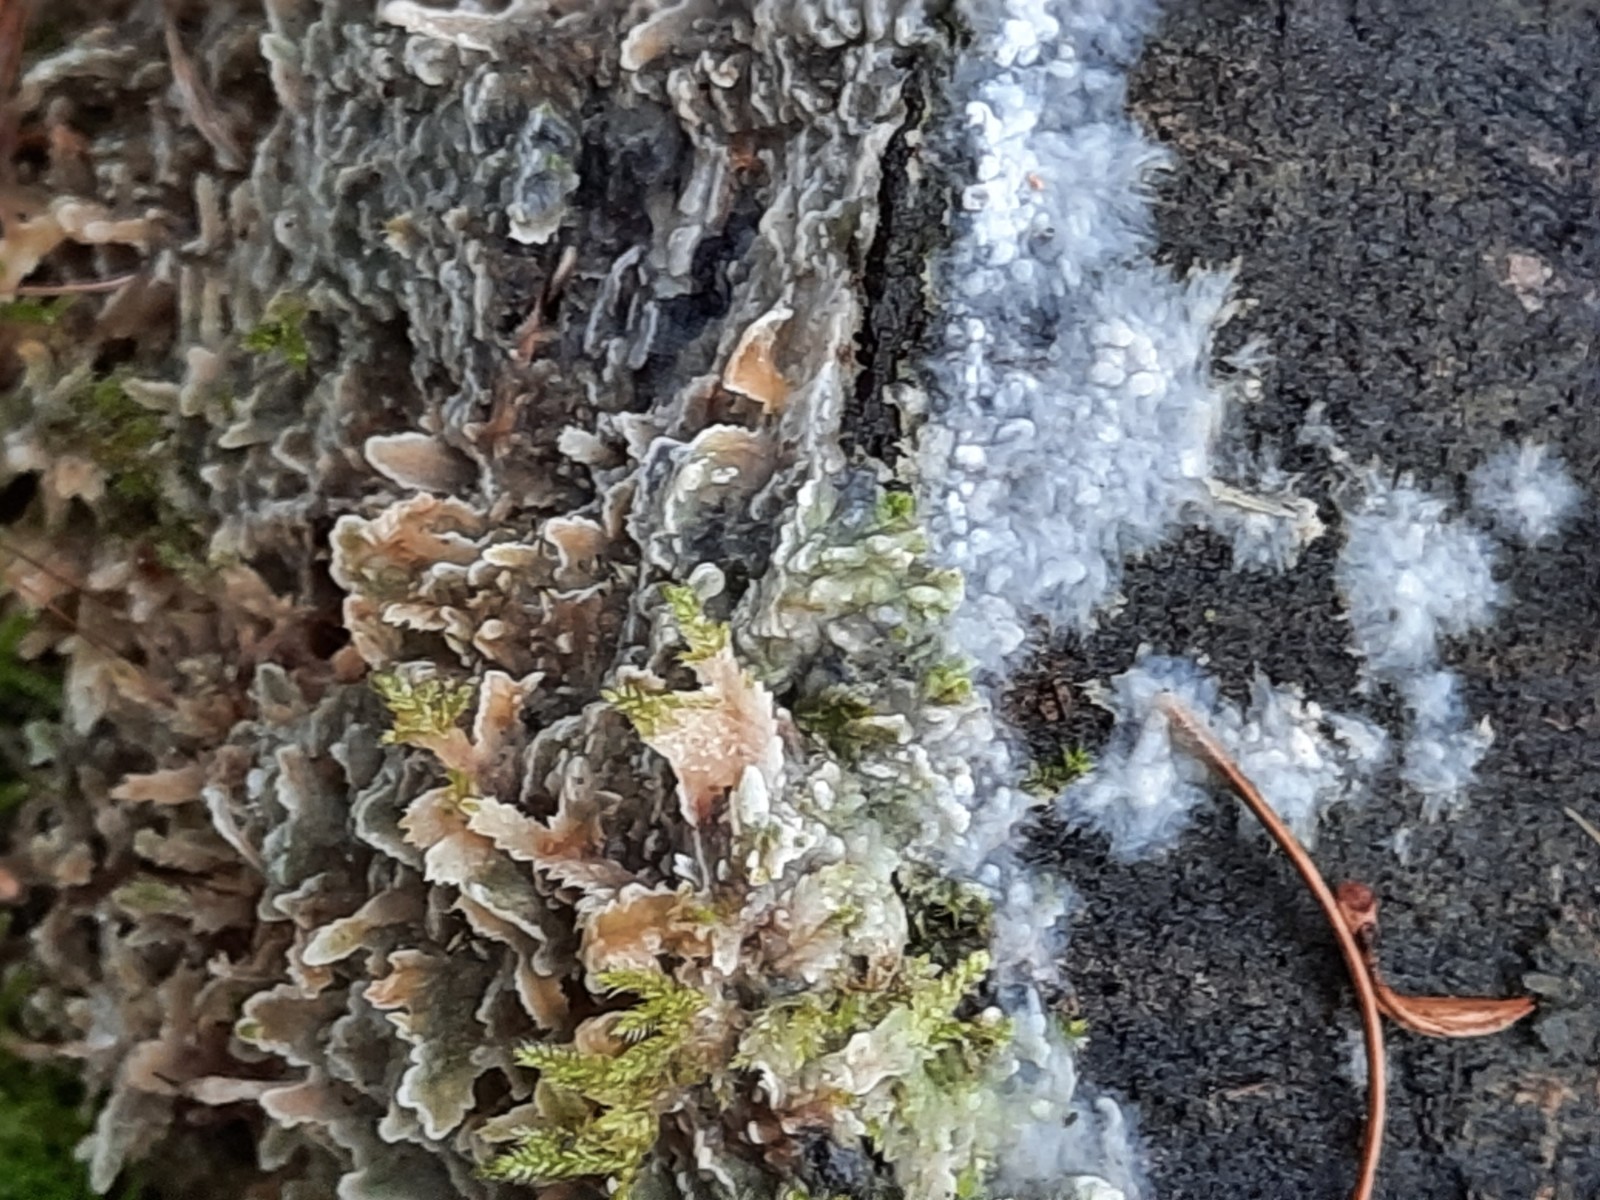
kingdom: Fungi
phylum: Basidiomycota
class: Agaricomycetes
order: Polyporales
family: Phanerochaetaceae
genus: Phlebiopsis
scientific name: Phlebiopsis gigantea
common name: kæmpebarksvamp
